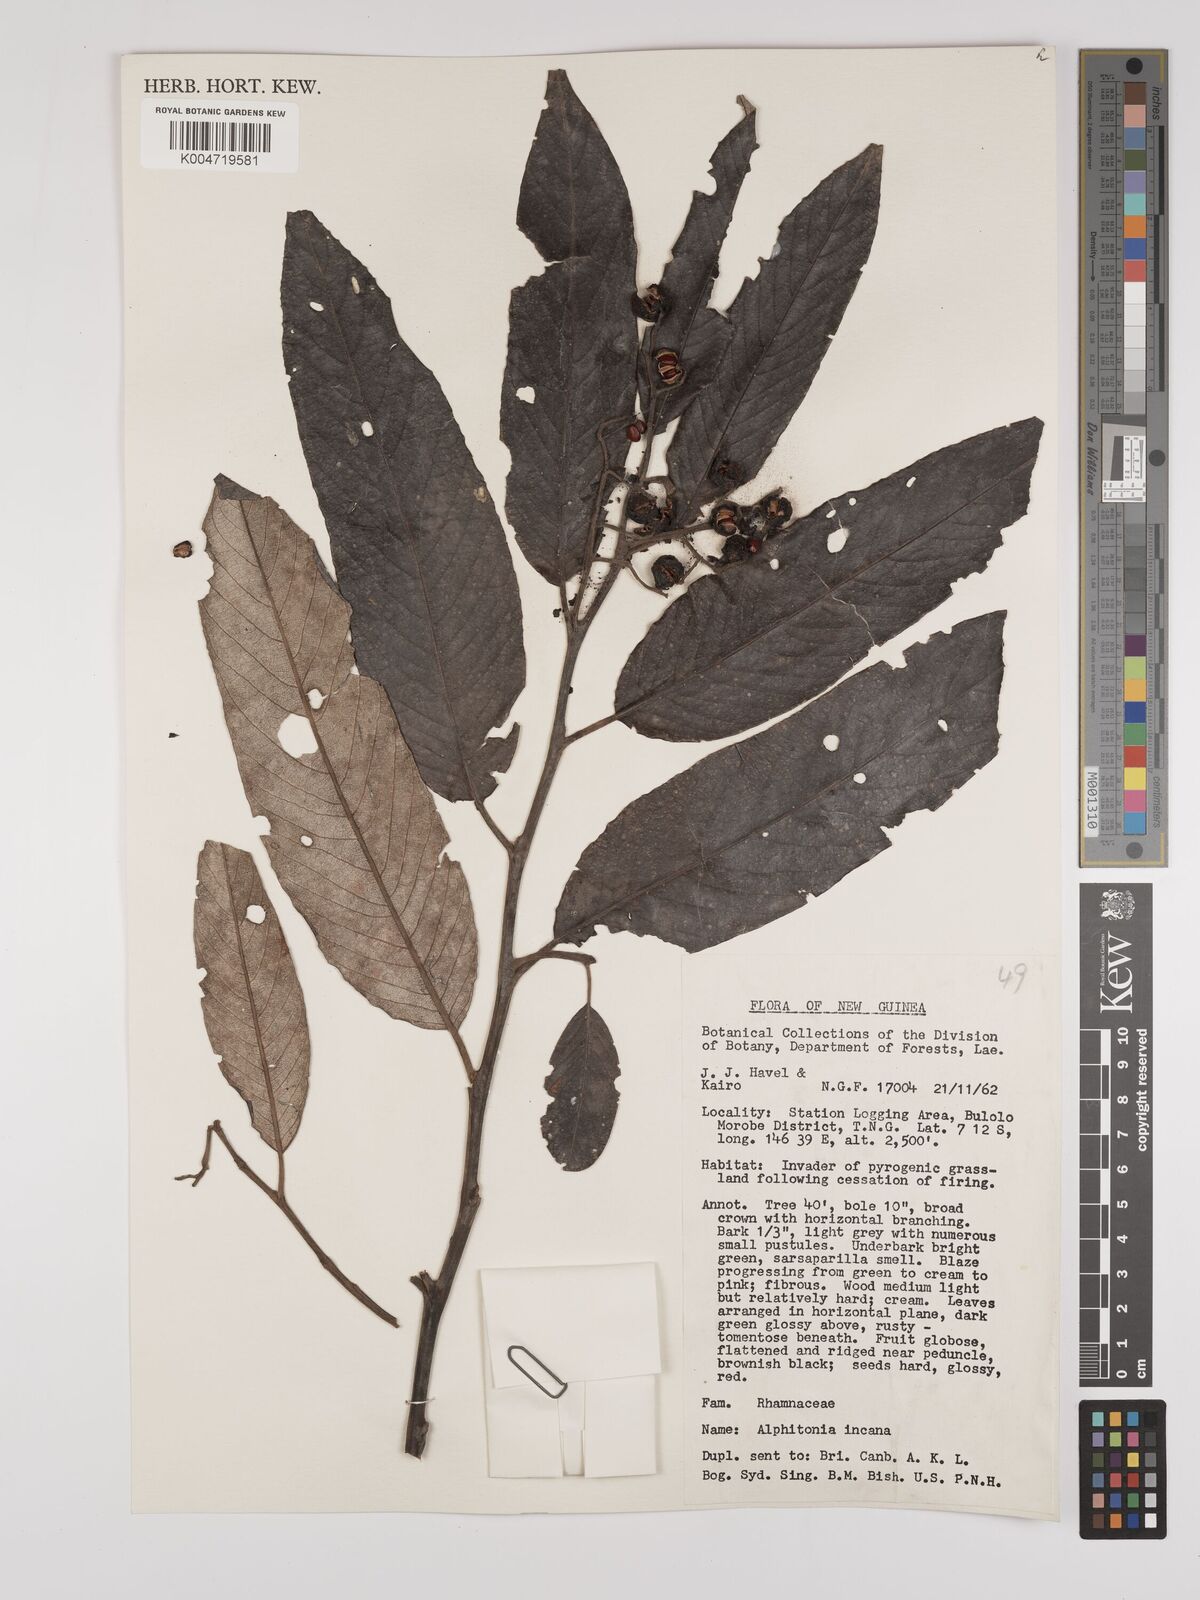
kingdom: Plantae
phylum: Tracheophyta
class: Magnoliopsida
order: Rosales
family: Rhamnaceae
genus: Alphitonia
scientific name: Alphitonia incana
